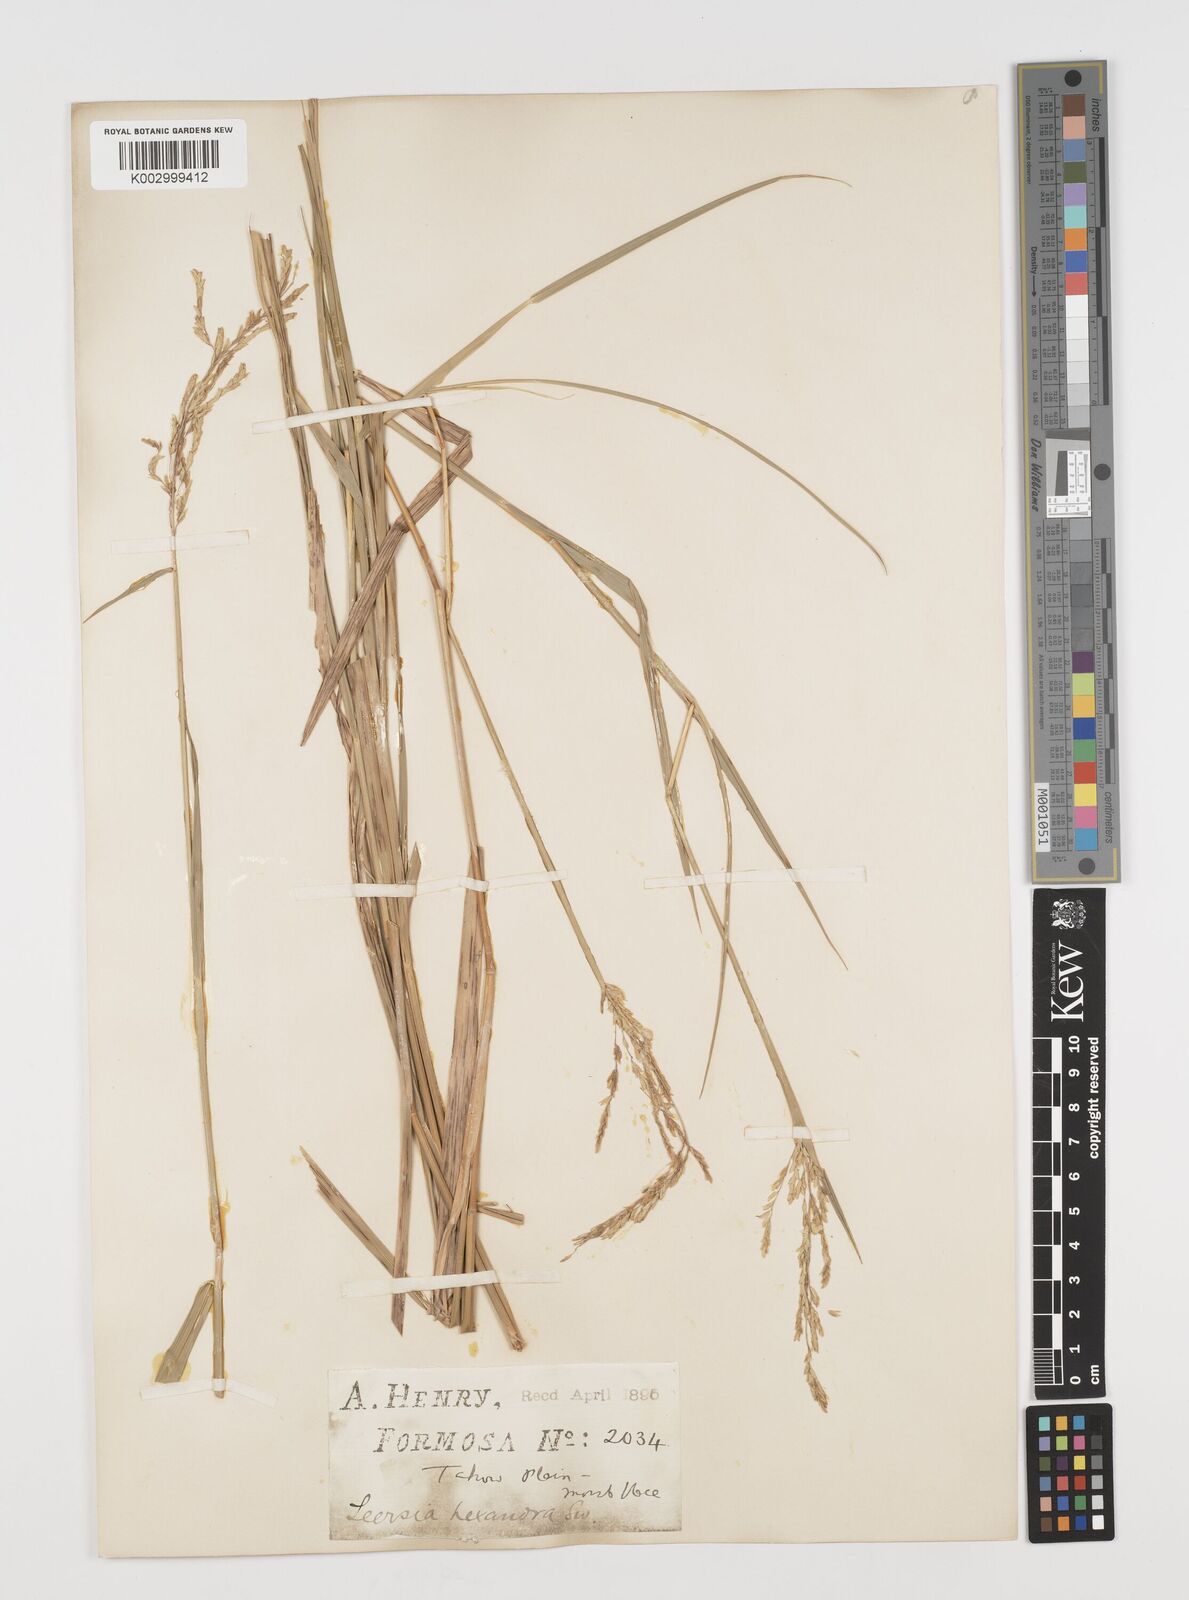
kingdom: Plantae
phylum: Tracheophyta
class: Liliopsida
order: Poales
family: Poaceae
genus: Leersia
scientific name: Leersia hexandra
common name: Southern cut grass
